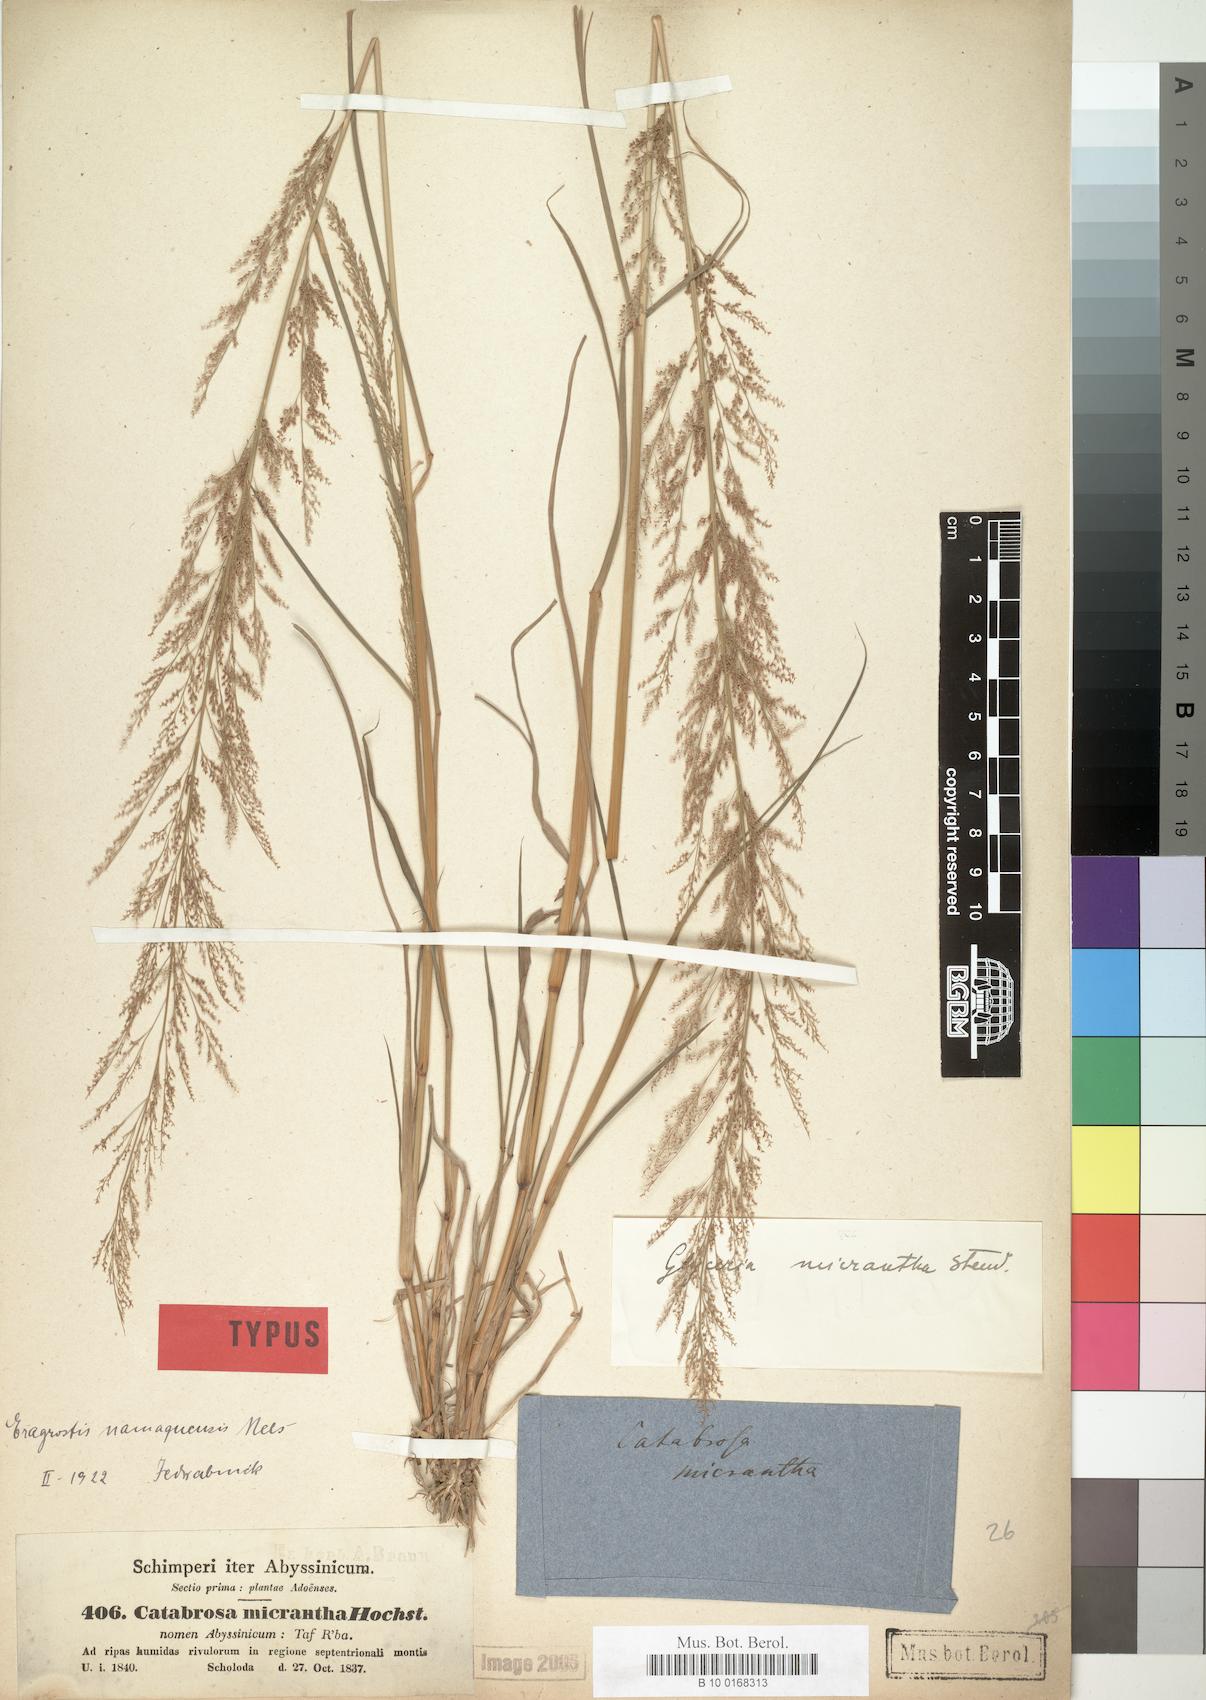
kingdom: Plantae
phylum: Tracheophyta
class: Liliopsida
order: Poales
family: Poaceae
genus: Eragrostis
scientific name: Eragrostis japonica
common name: Pond lovegrass
